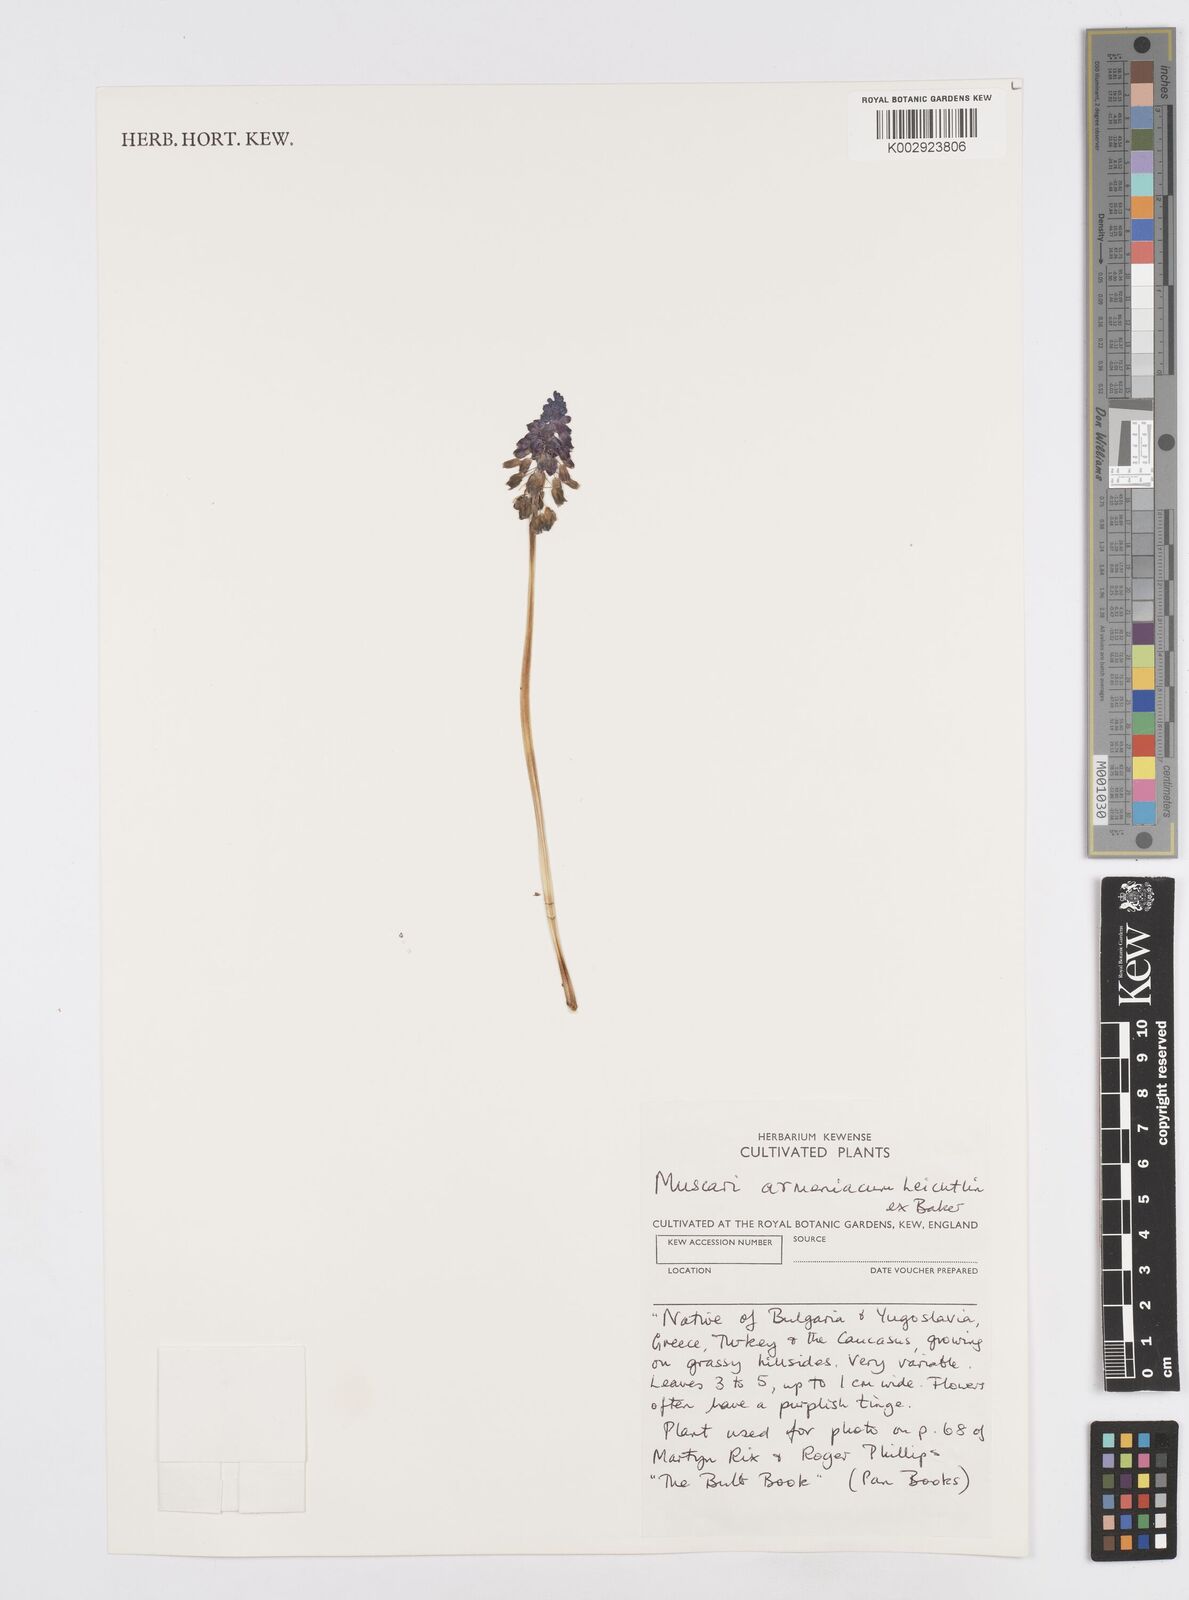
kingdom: Plantae
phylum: Tracheophyta
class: Liliopsida
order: Asparagales
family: Asparagaceae
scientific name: Asparagaceae
